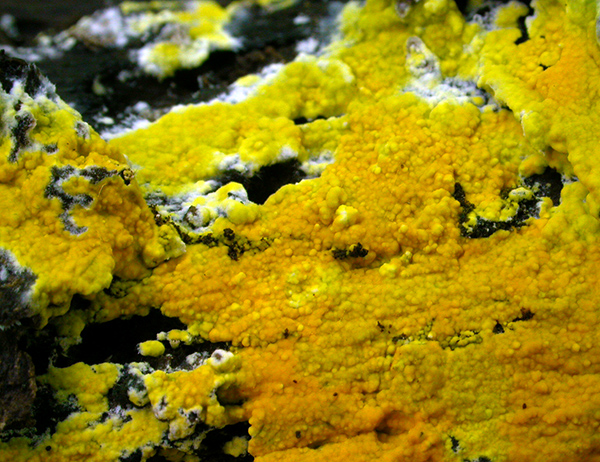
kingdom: Fungi
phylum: Basidiomycota
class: Agaricomycetes
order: Polyporales
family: Meruliaceae
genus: Phlebiodontia
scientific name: Phlebiodontia subochracea
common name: svovl-åresvamp
